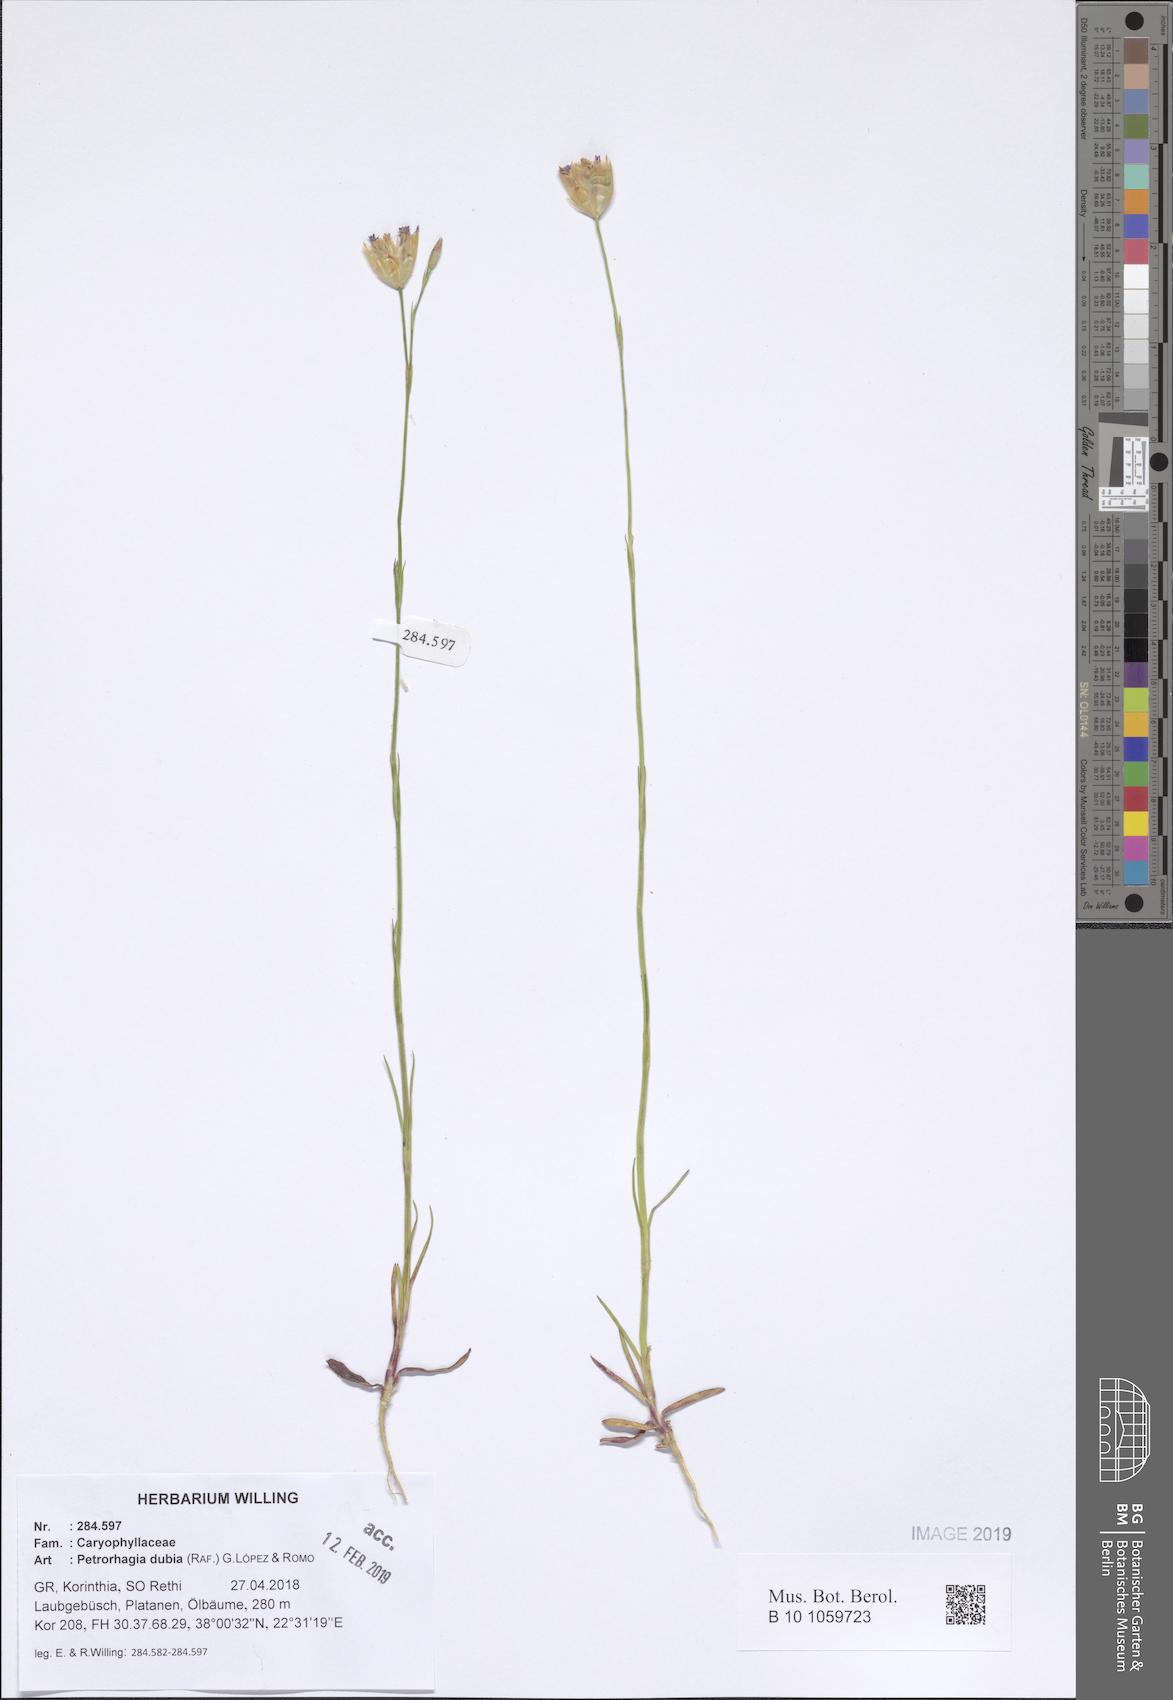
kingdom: Plantae
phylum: Tracheophyta
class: Magnoliopsida
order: Caryophyllales
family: Caryophyllaceae
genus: Petrorhagia
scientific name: Petrorhagia dubia
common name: Hairypink
